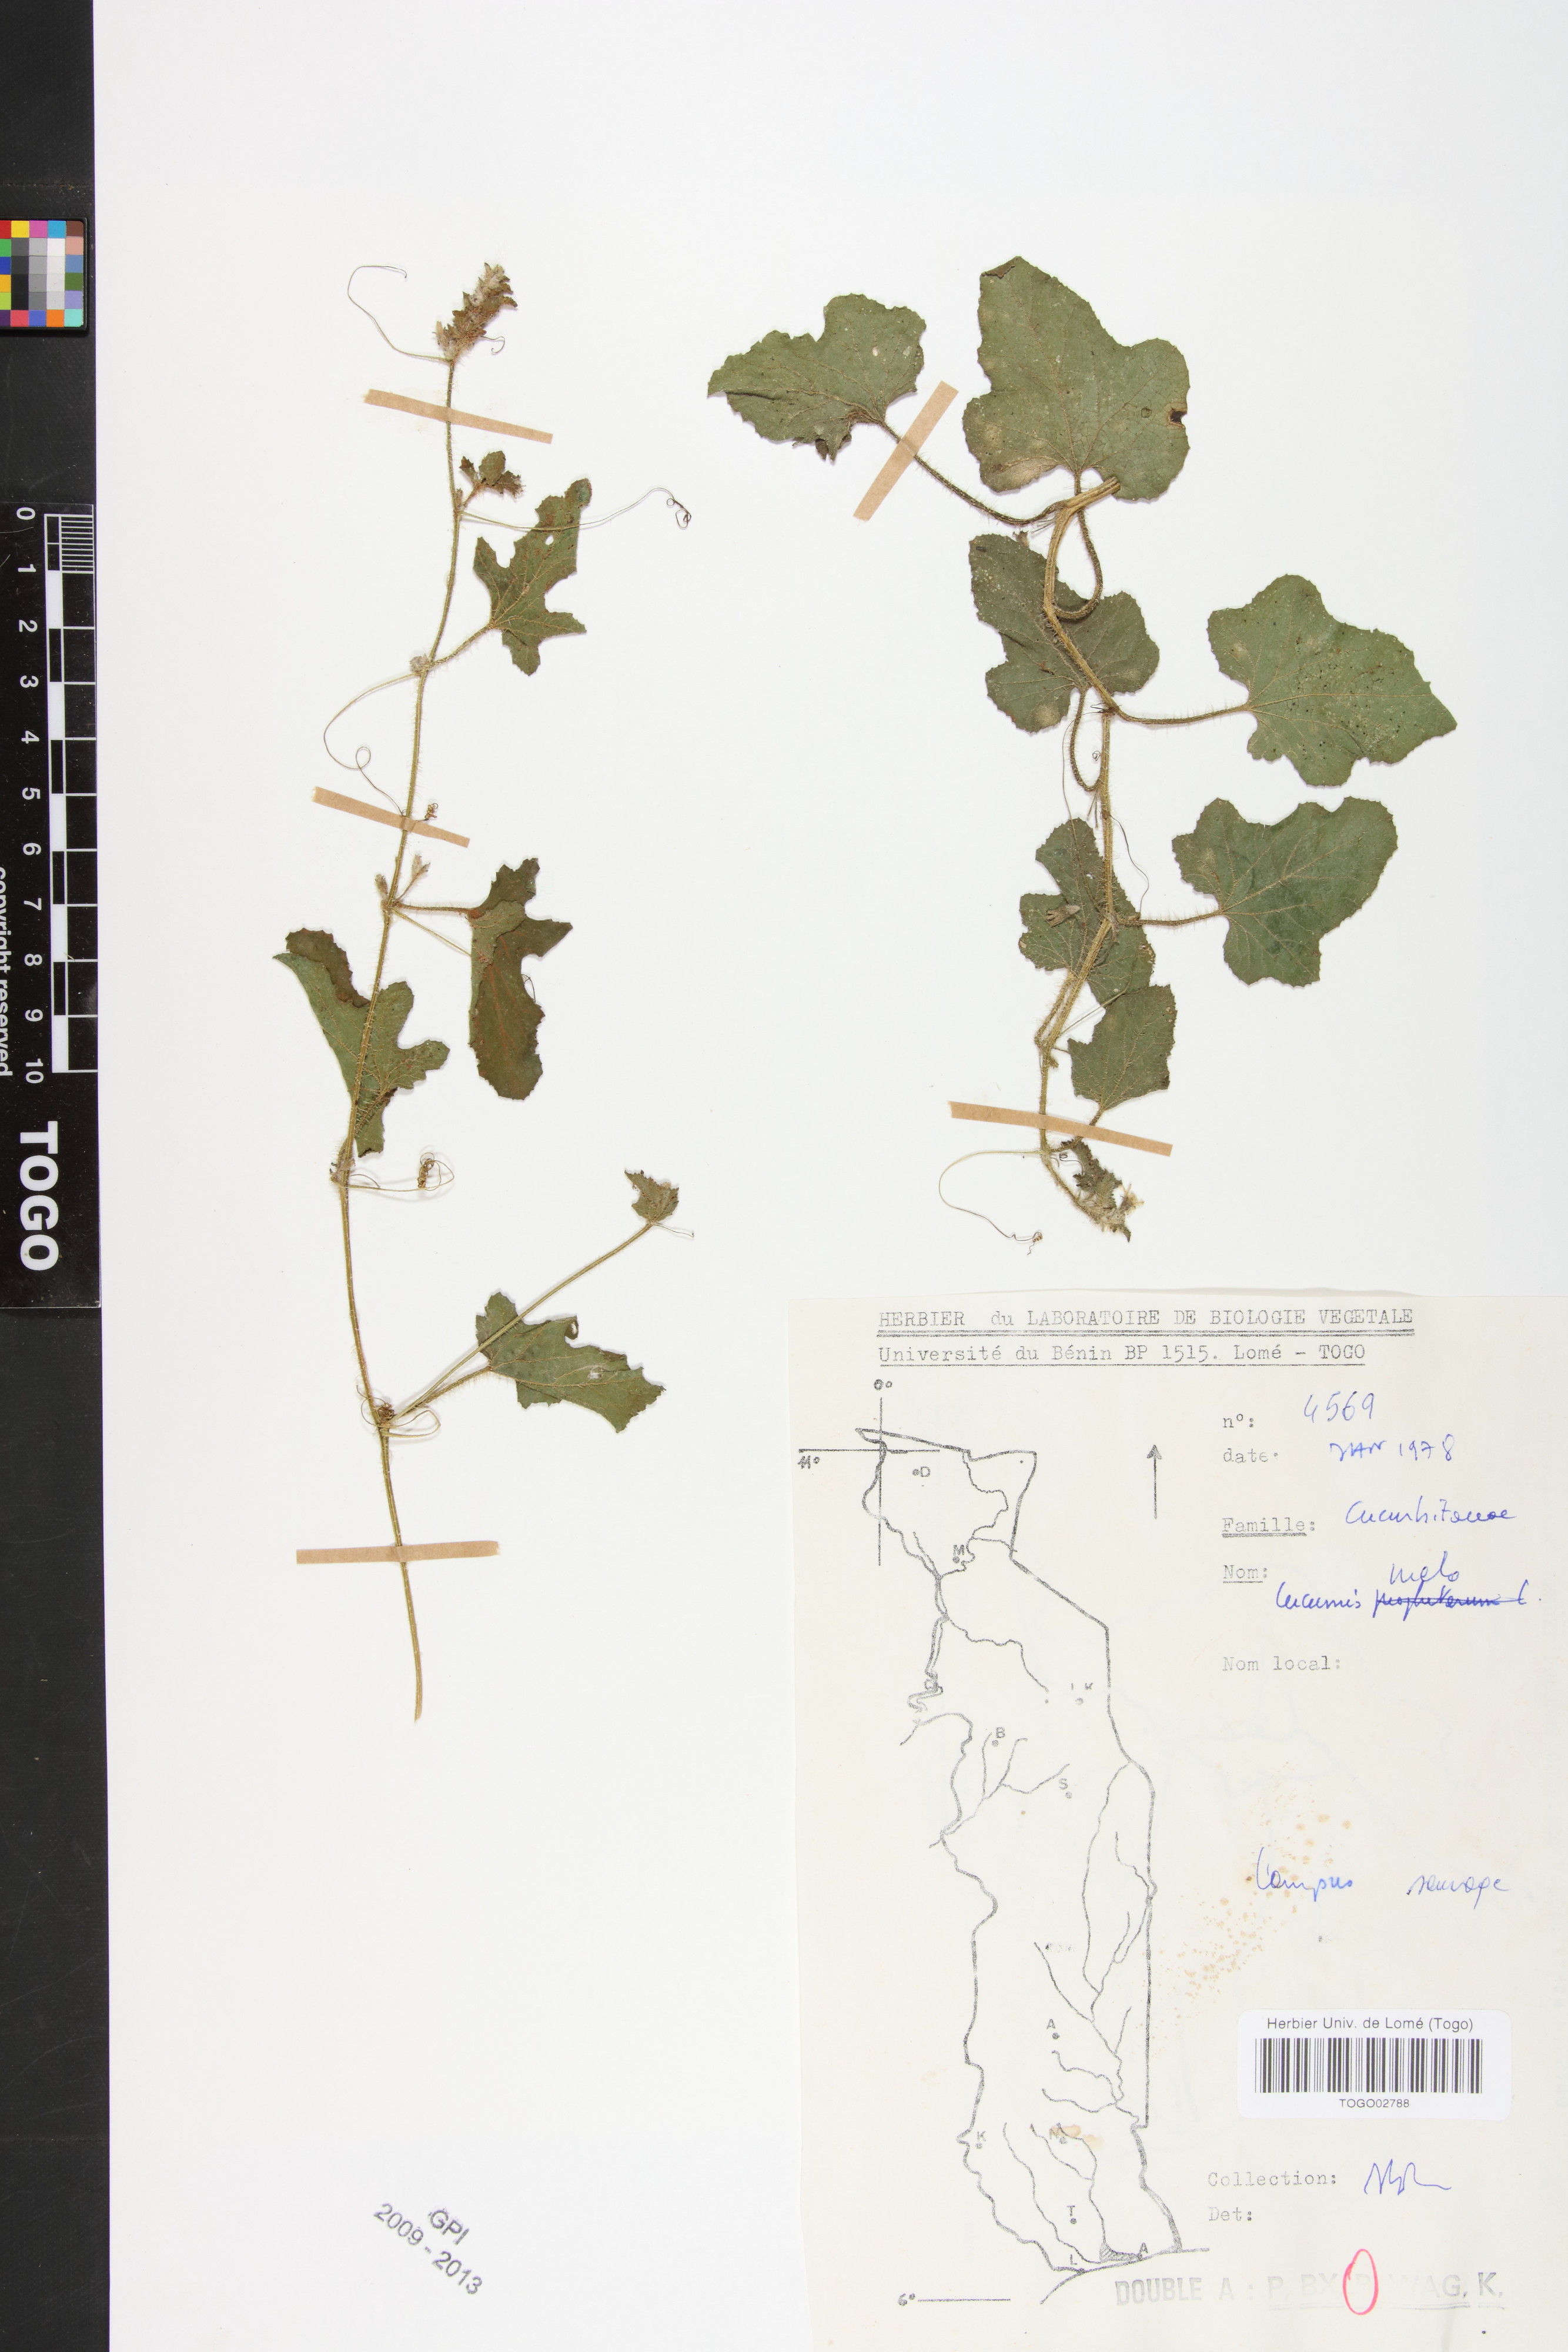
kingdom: Plantae
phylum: Tracheophyta
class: Magnoliopsida
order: Cucurbitales
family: Cucurbitaceae
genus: Cucumis
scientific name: Cucumis melo
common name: Melon
